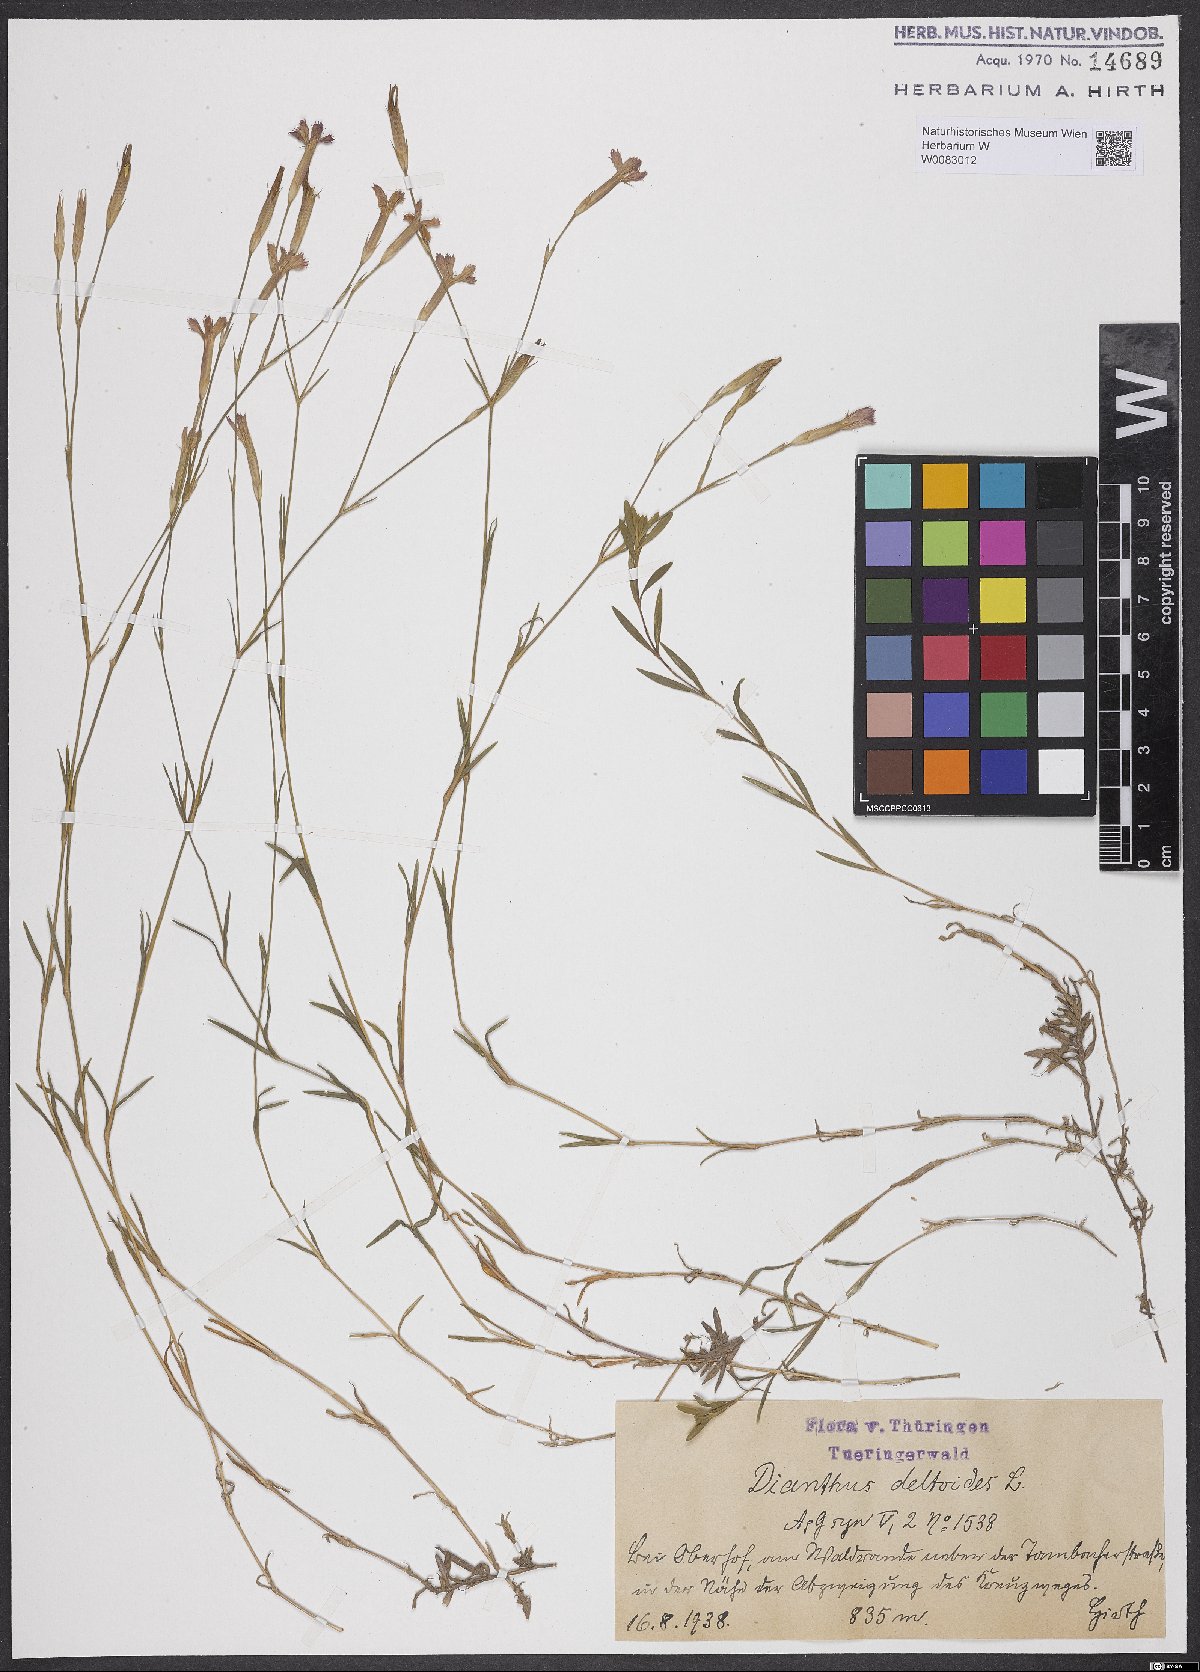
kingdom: Plantae
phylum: Tracheophyta
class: Magnoliopsida
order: Caryophyllales
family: Caryophyllaceae
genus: Dianthus
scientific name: Dianthus deltoides
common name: Maiden pink
